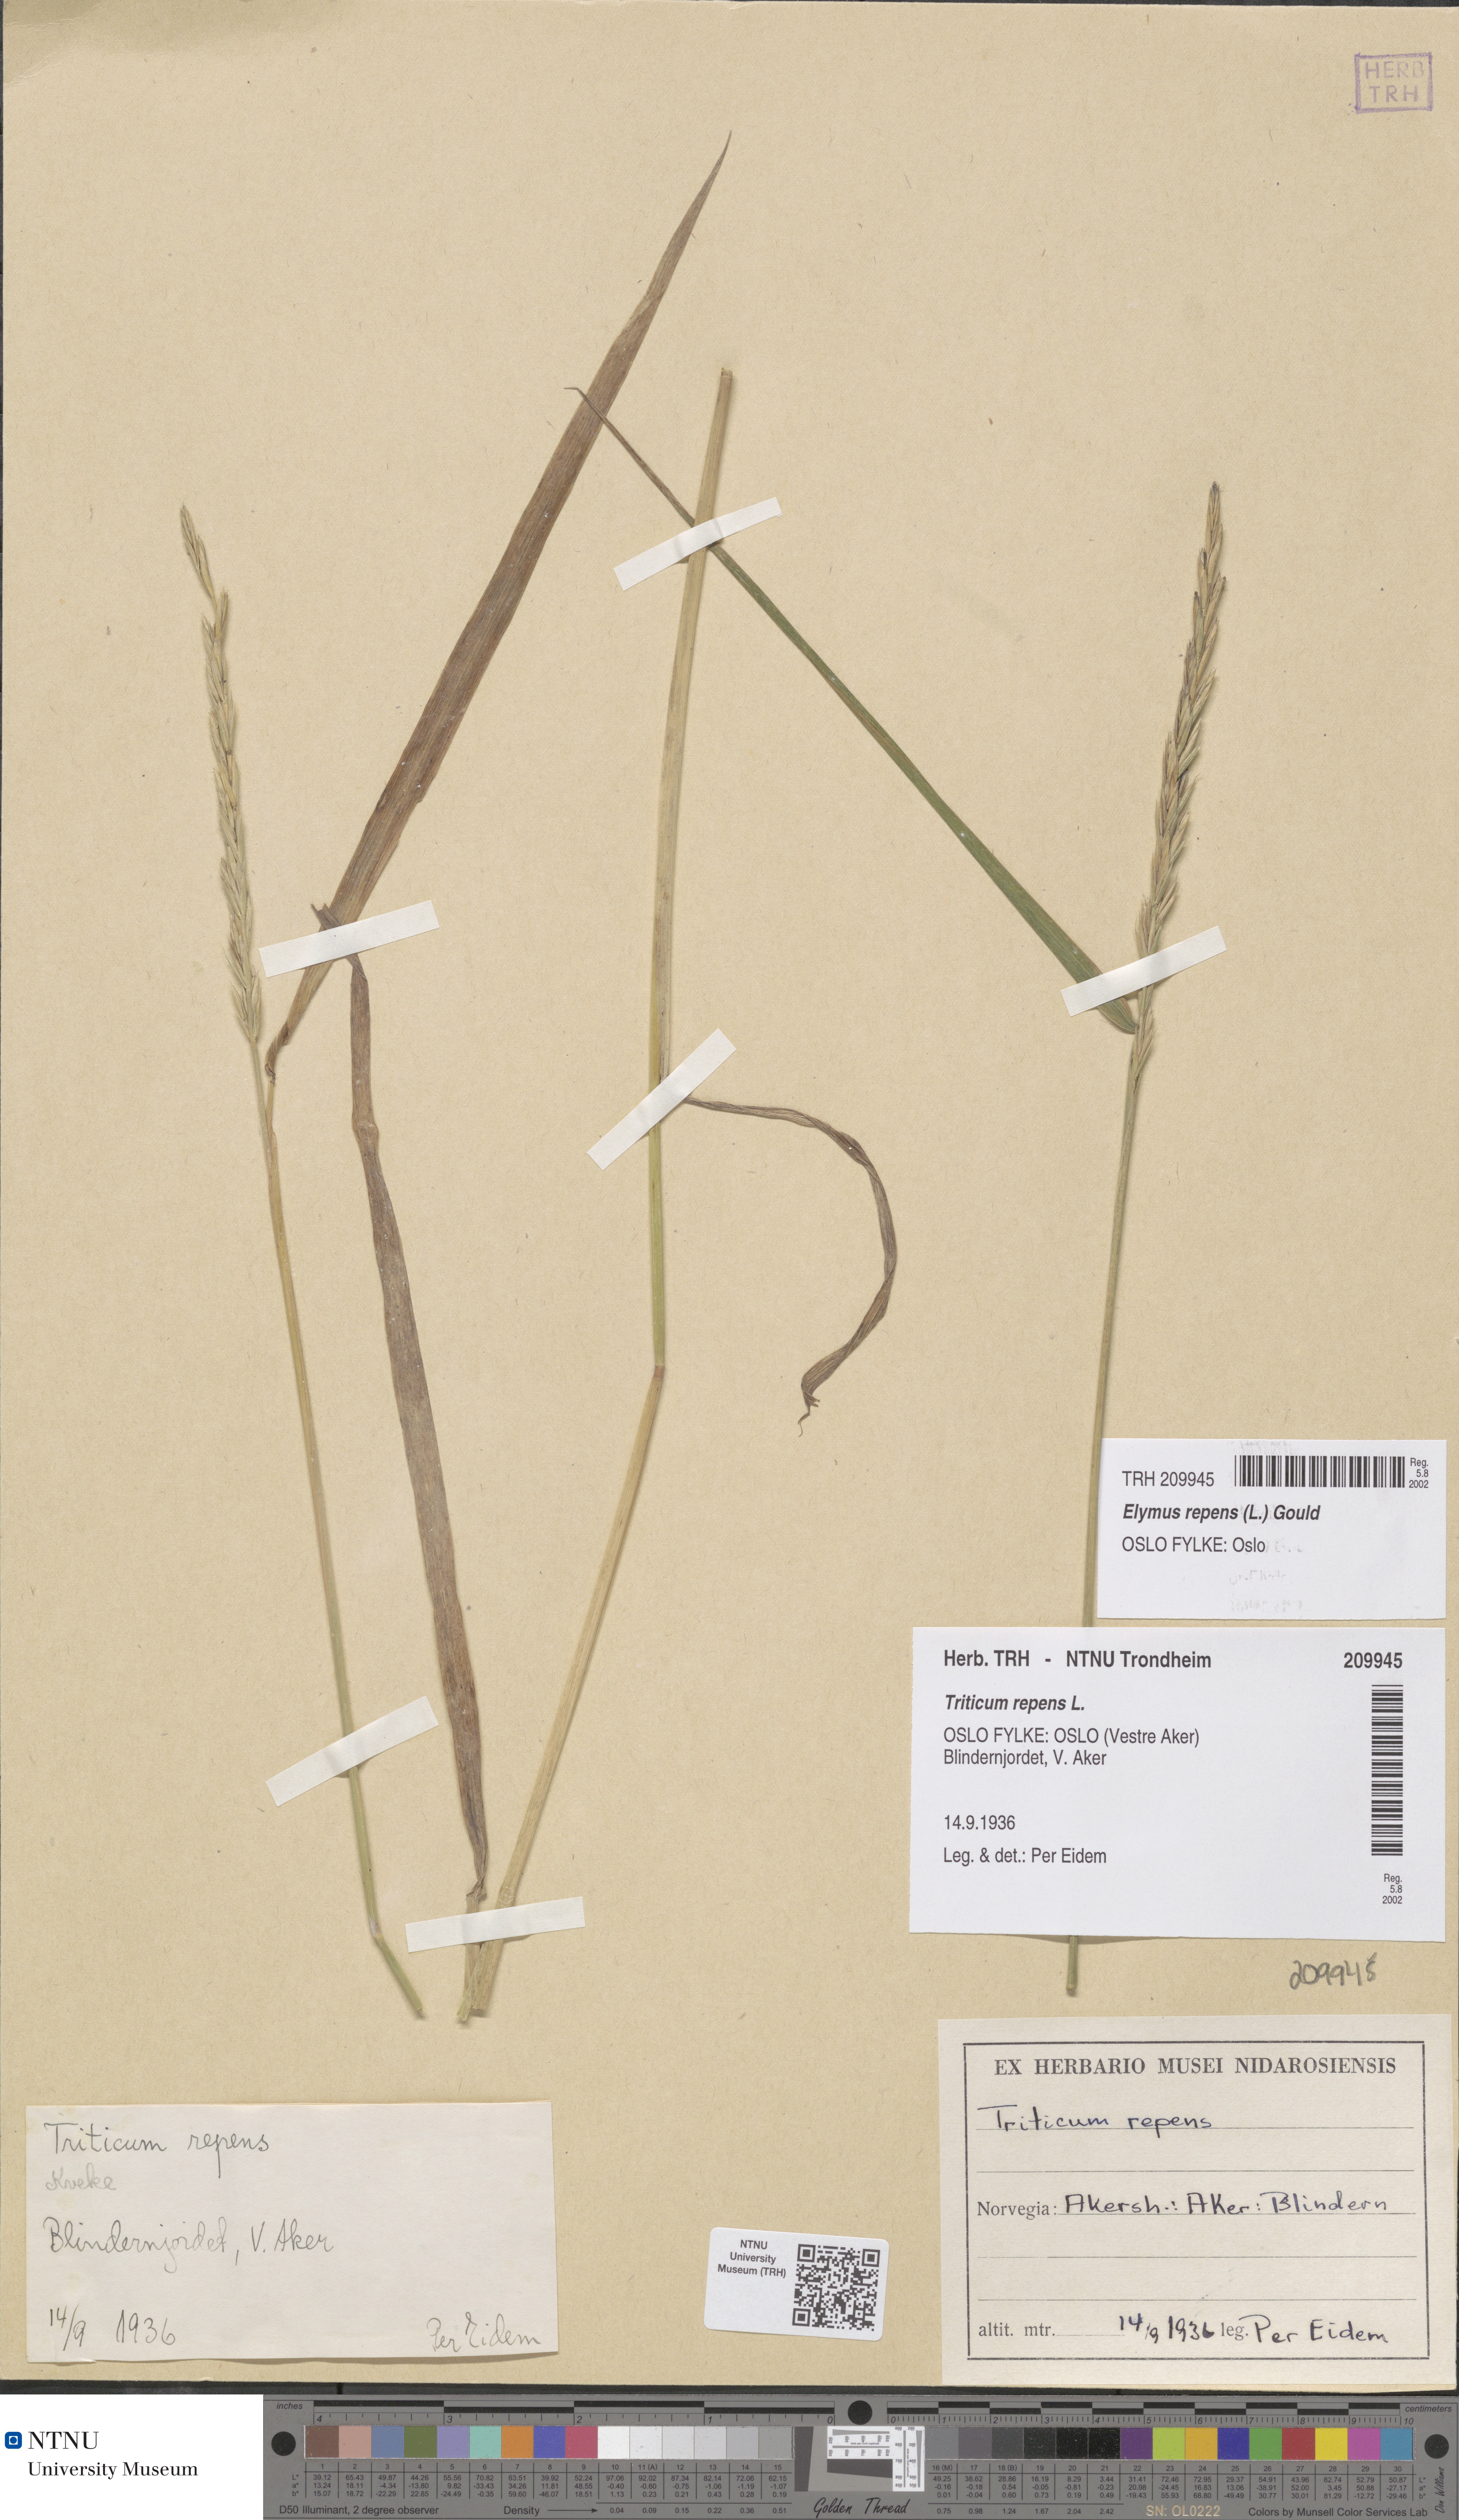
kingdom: Plantae
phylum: Tracheophyta
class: Liliopsida
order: Poales
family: Poaceae
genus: Elymus
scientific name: Elymus repens
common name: Quackgrass
